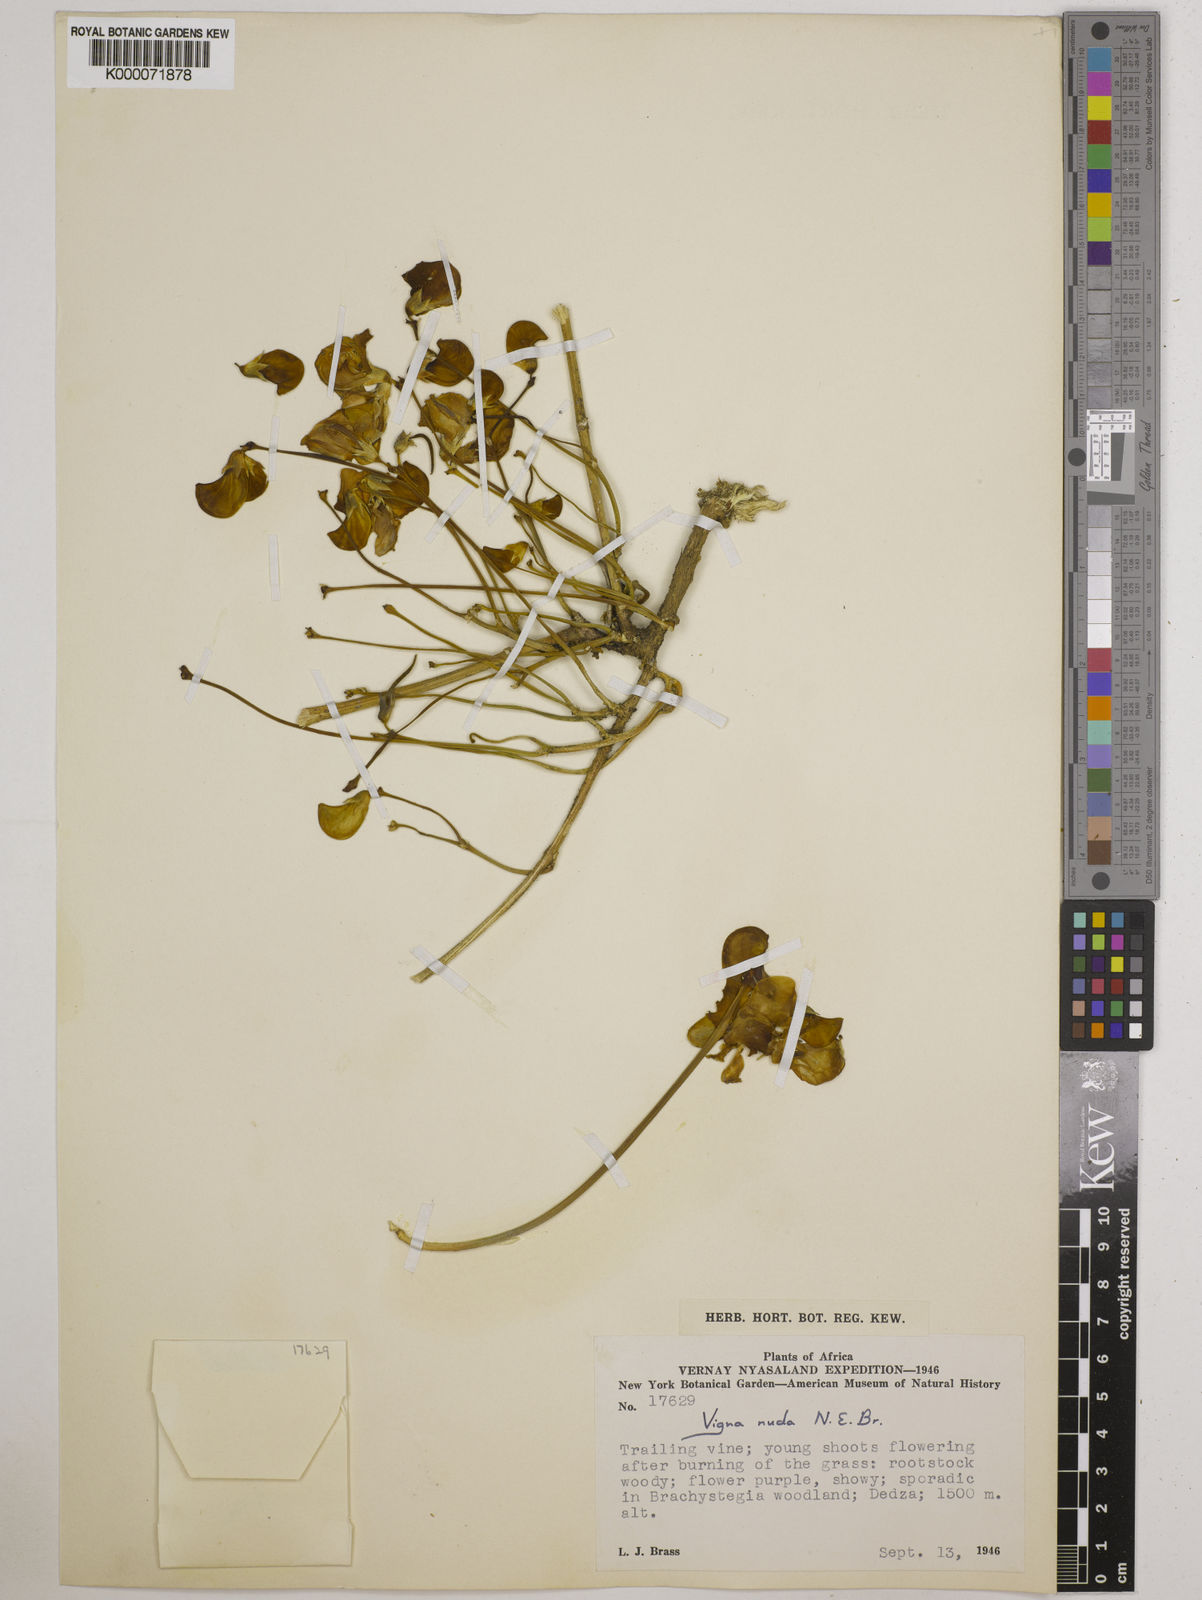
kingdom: Plantae
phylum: Tracheophyta
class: Magnoliopsida
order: Fabales
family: Fabaceae
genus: Vigna
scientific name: Vigna antunesii
